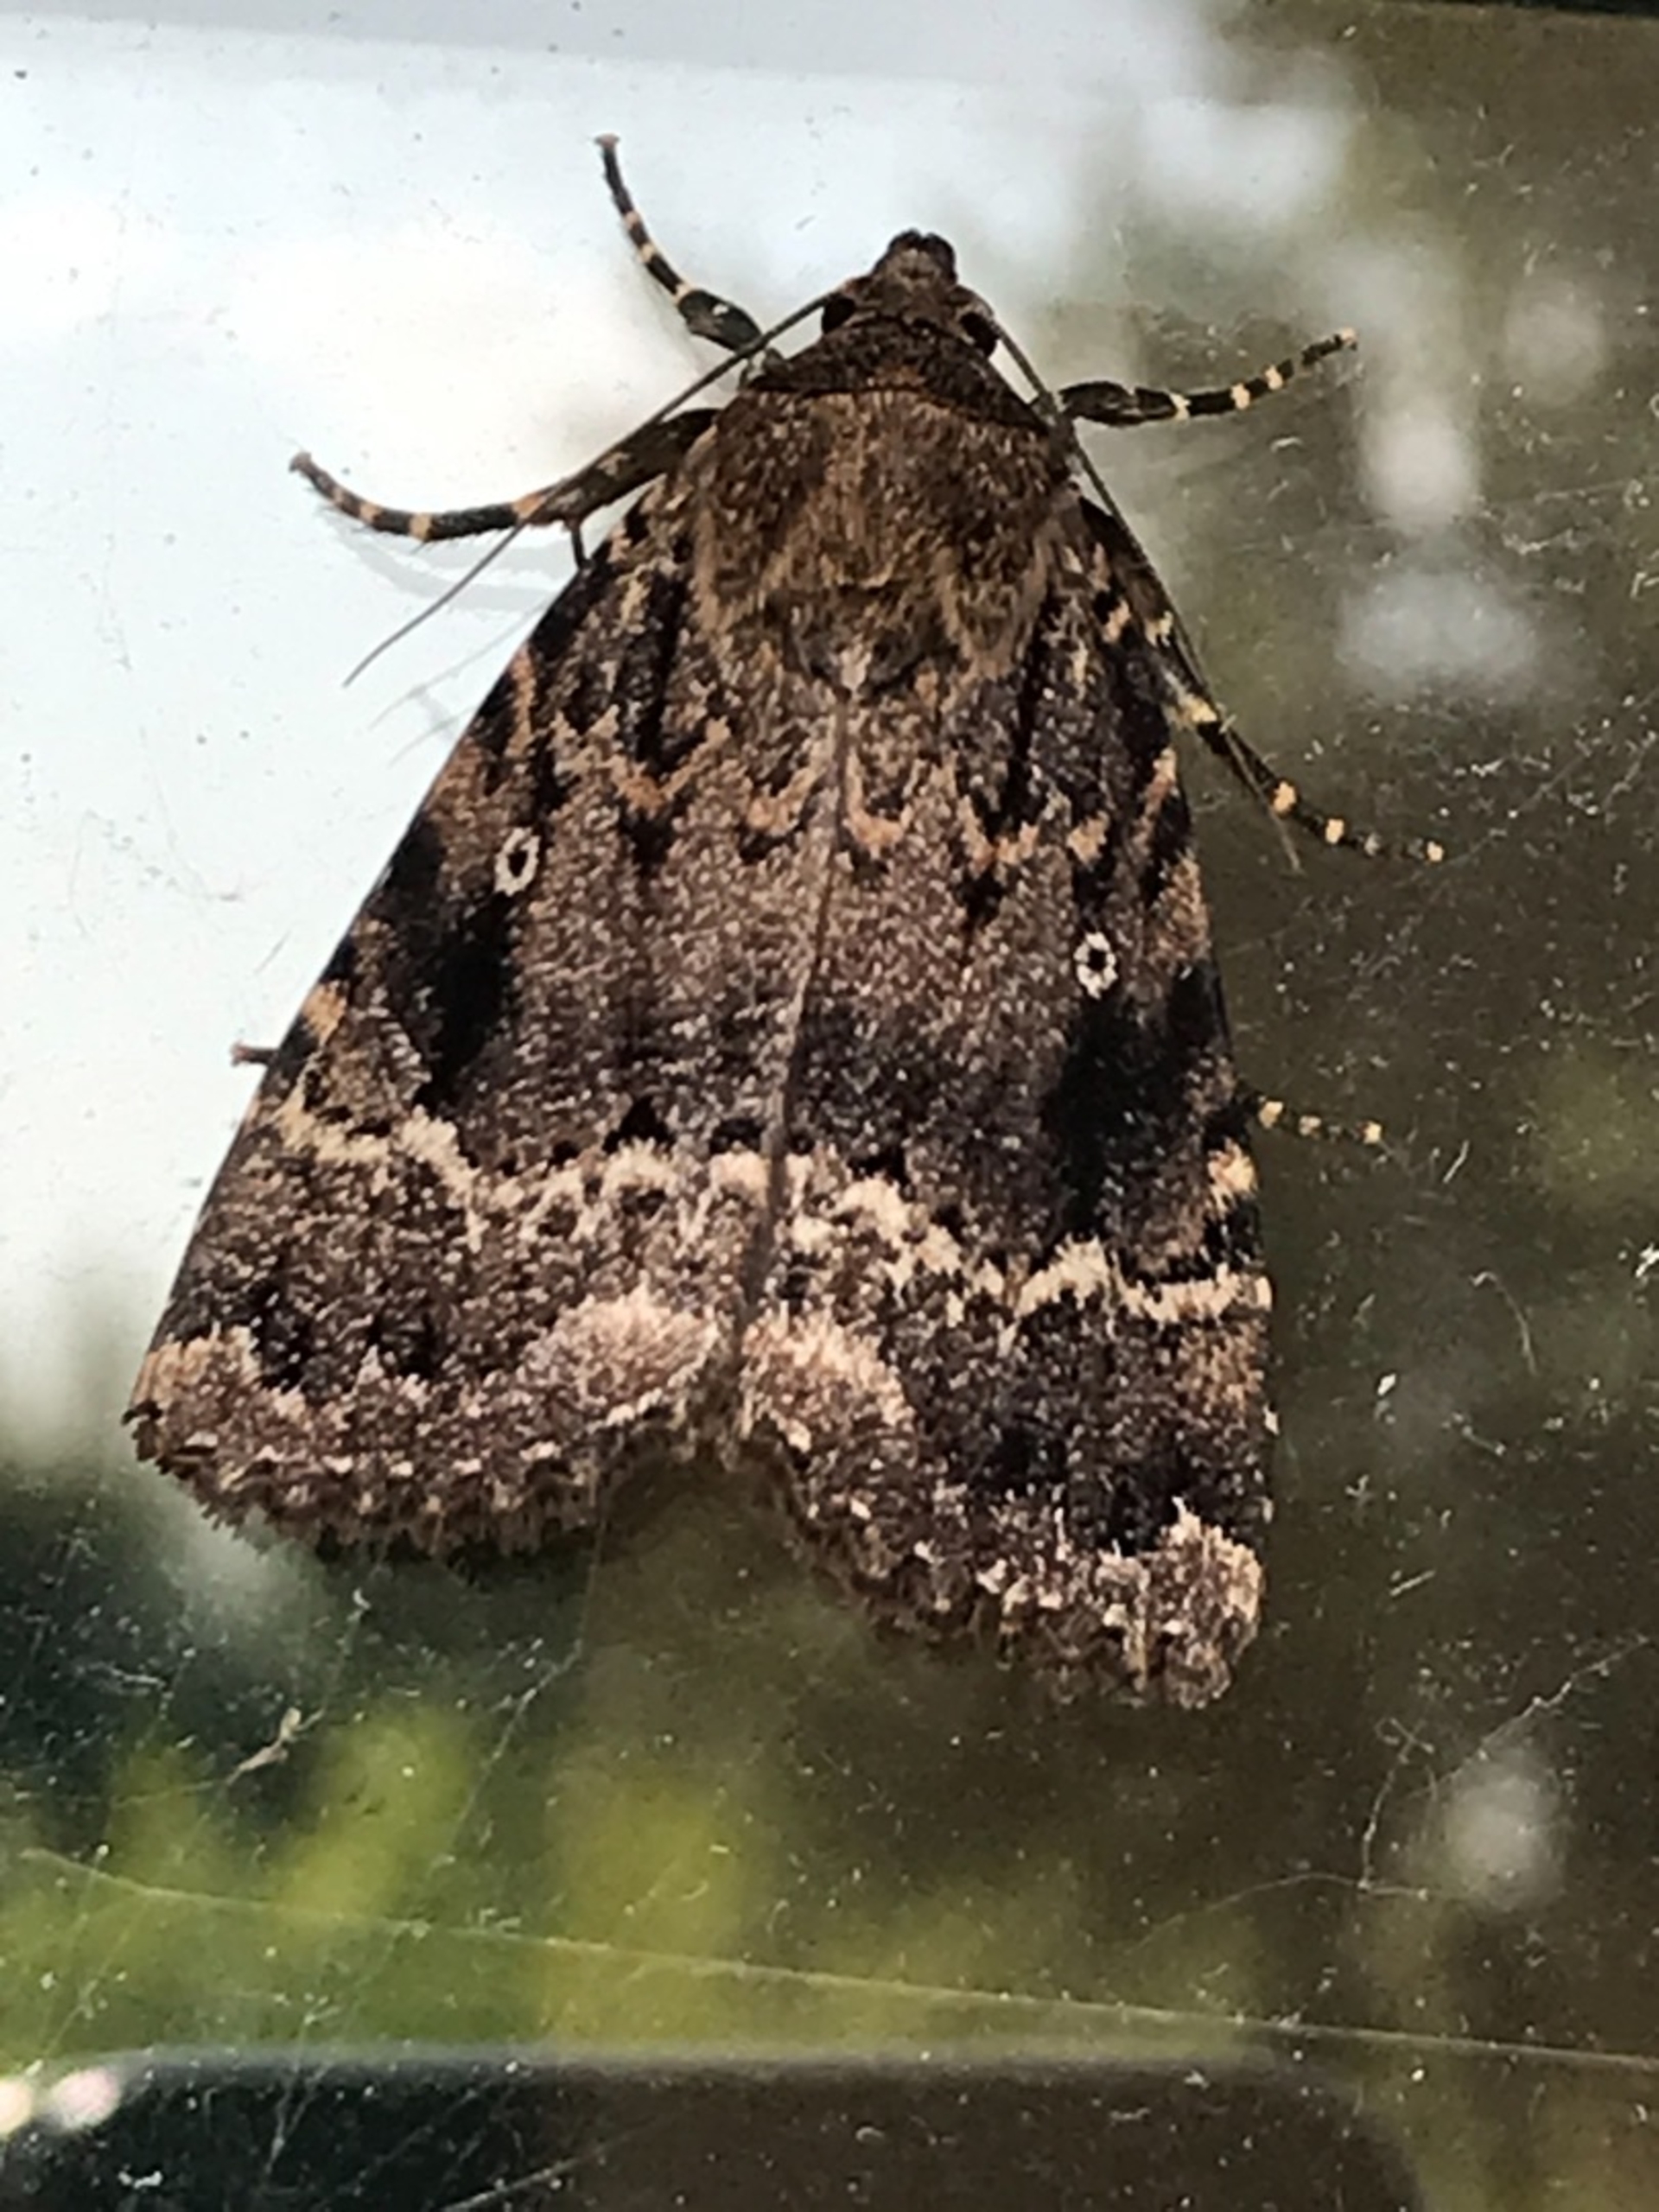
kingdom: Animalia
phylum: Arthropoda
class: Insecta
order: Lepidoptera
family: Noctuidae
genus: Amphipyra
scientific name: Amphipyra pyramidea
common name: Pyramideugle
